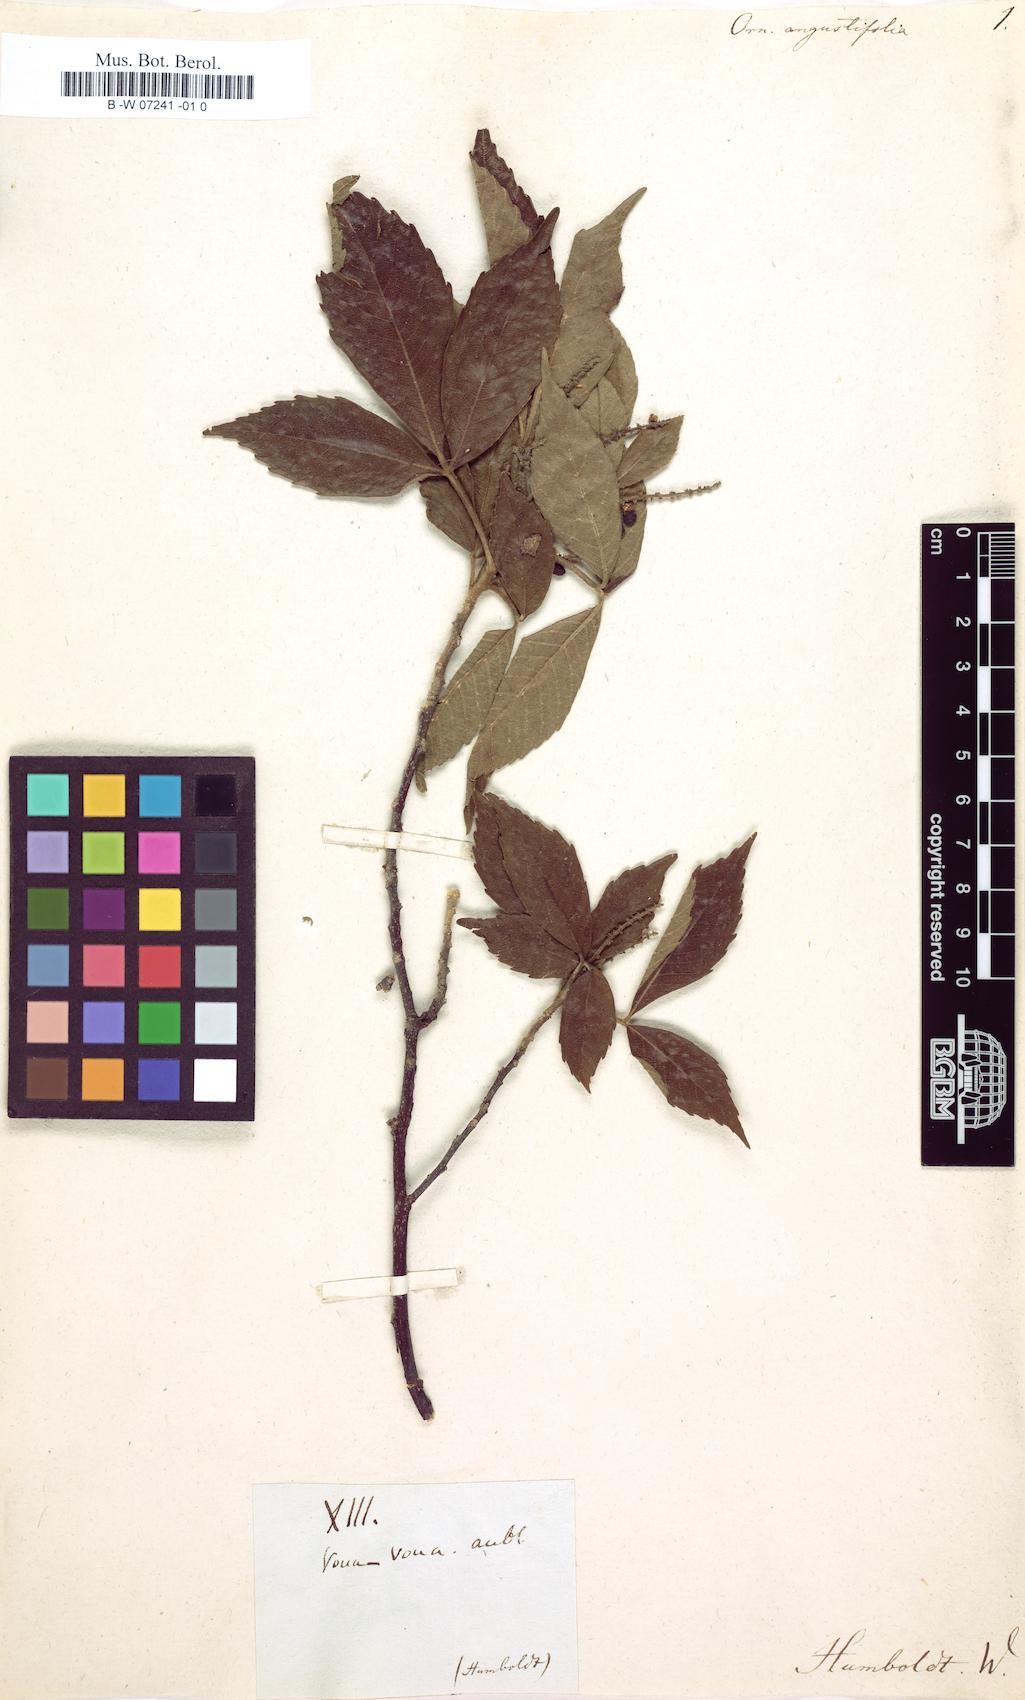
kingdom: Plantae
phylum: Tracheophyta
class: Magnoliopsida
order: Sapindales
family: Sapindaceae
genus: Allophylus
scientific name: Allophylus
